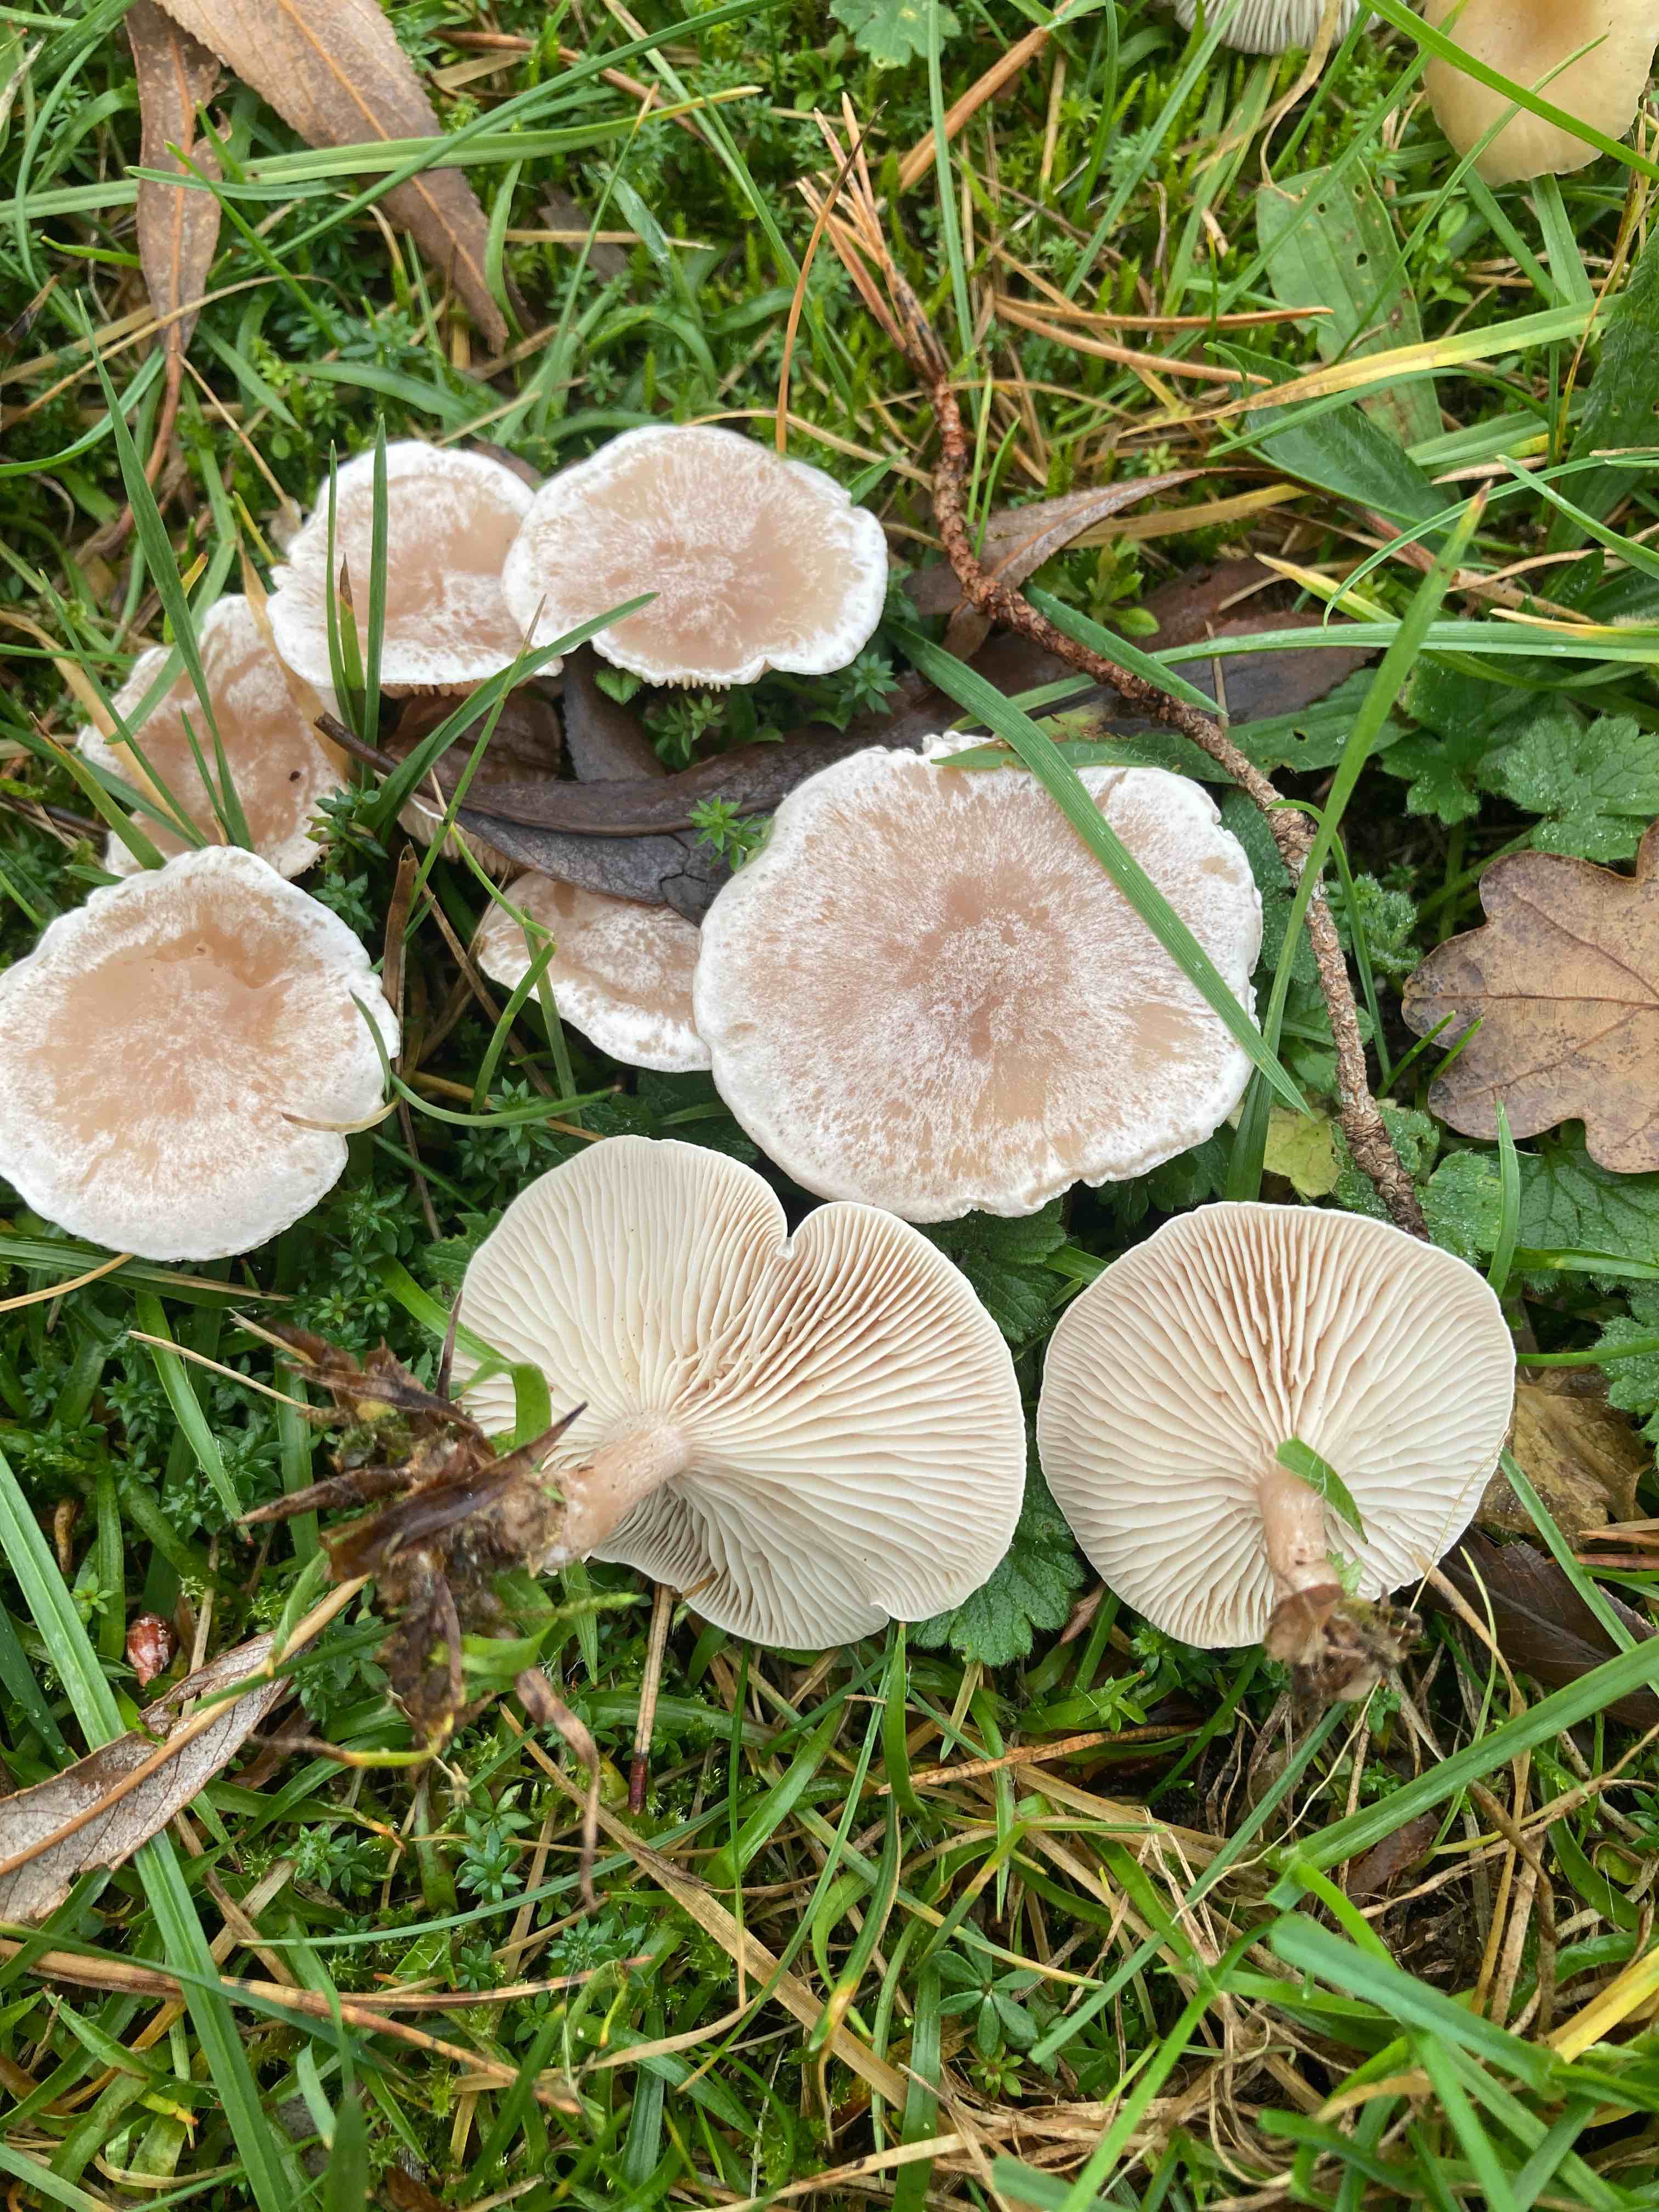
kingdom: Fungi
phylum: Basidiomycota
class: Agaricomycetes
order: Agaricales
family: Tricholomataceae
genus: Clitocybe
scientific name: Clitocybe rivulosa
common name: eng-tragthat
